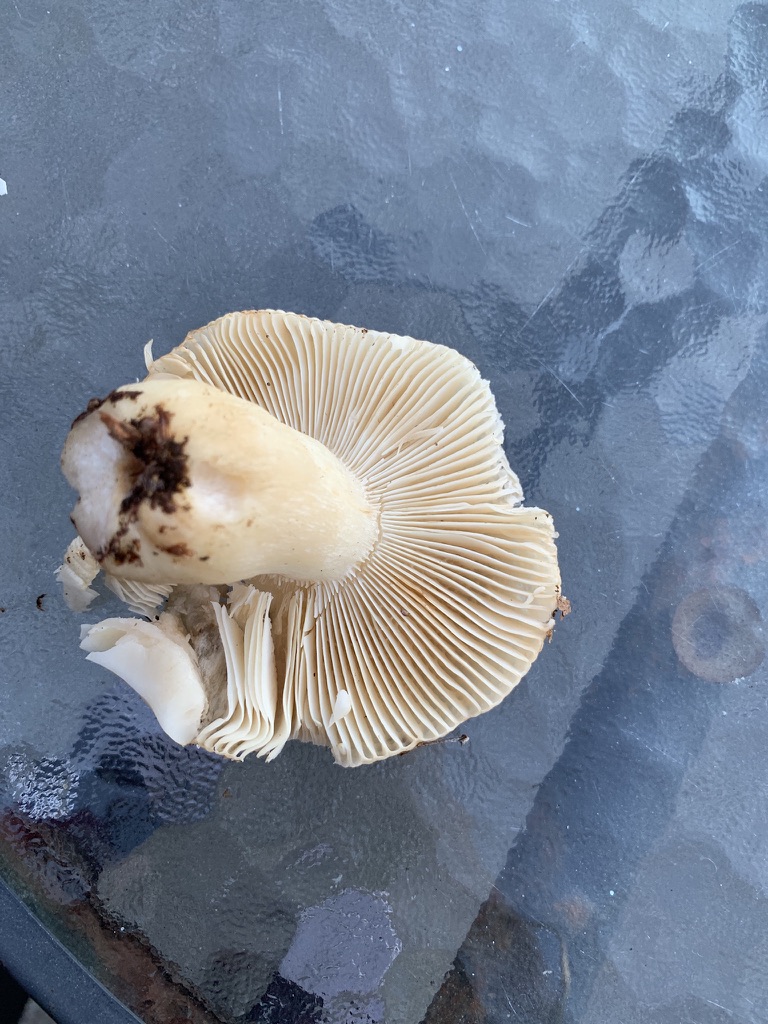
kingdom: Fungi
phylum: Basidiomycota
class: Agaricomycetes
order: Russulales
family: Russulaceae
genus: Russula
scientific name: Russula fellea
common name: galde-skørhat
